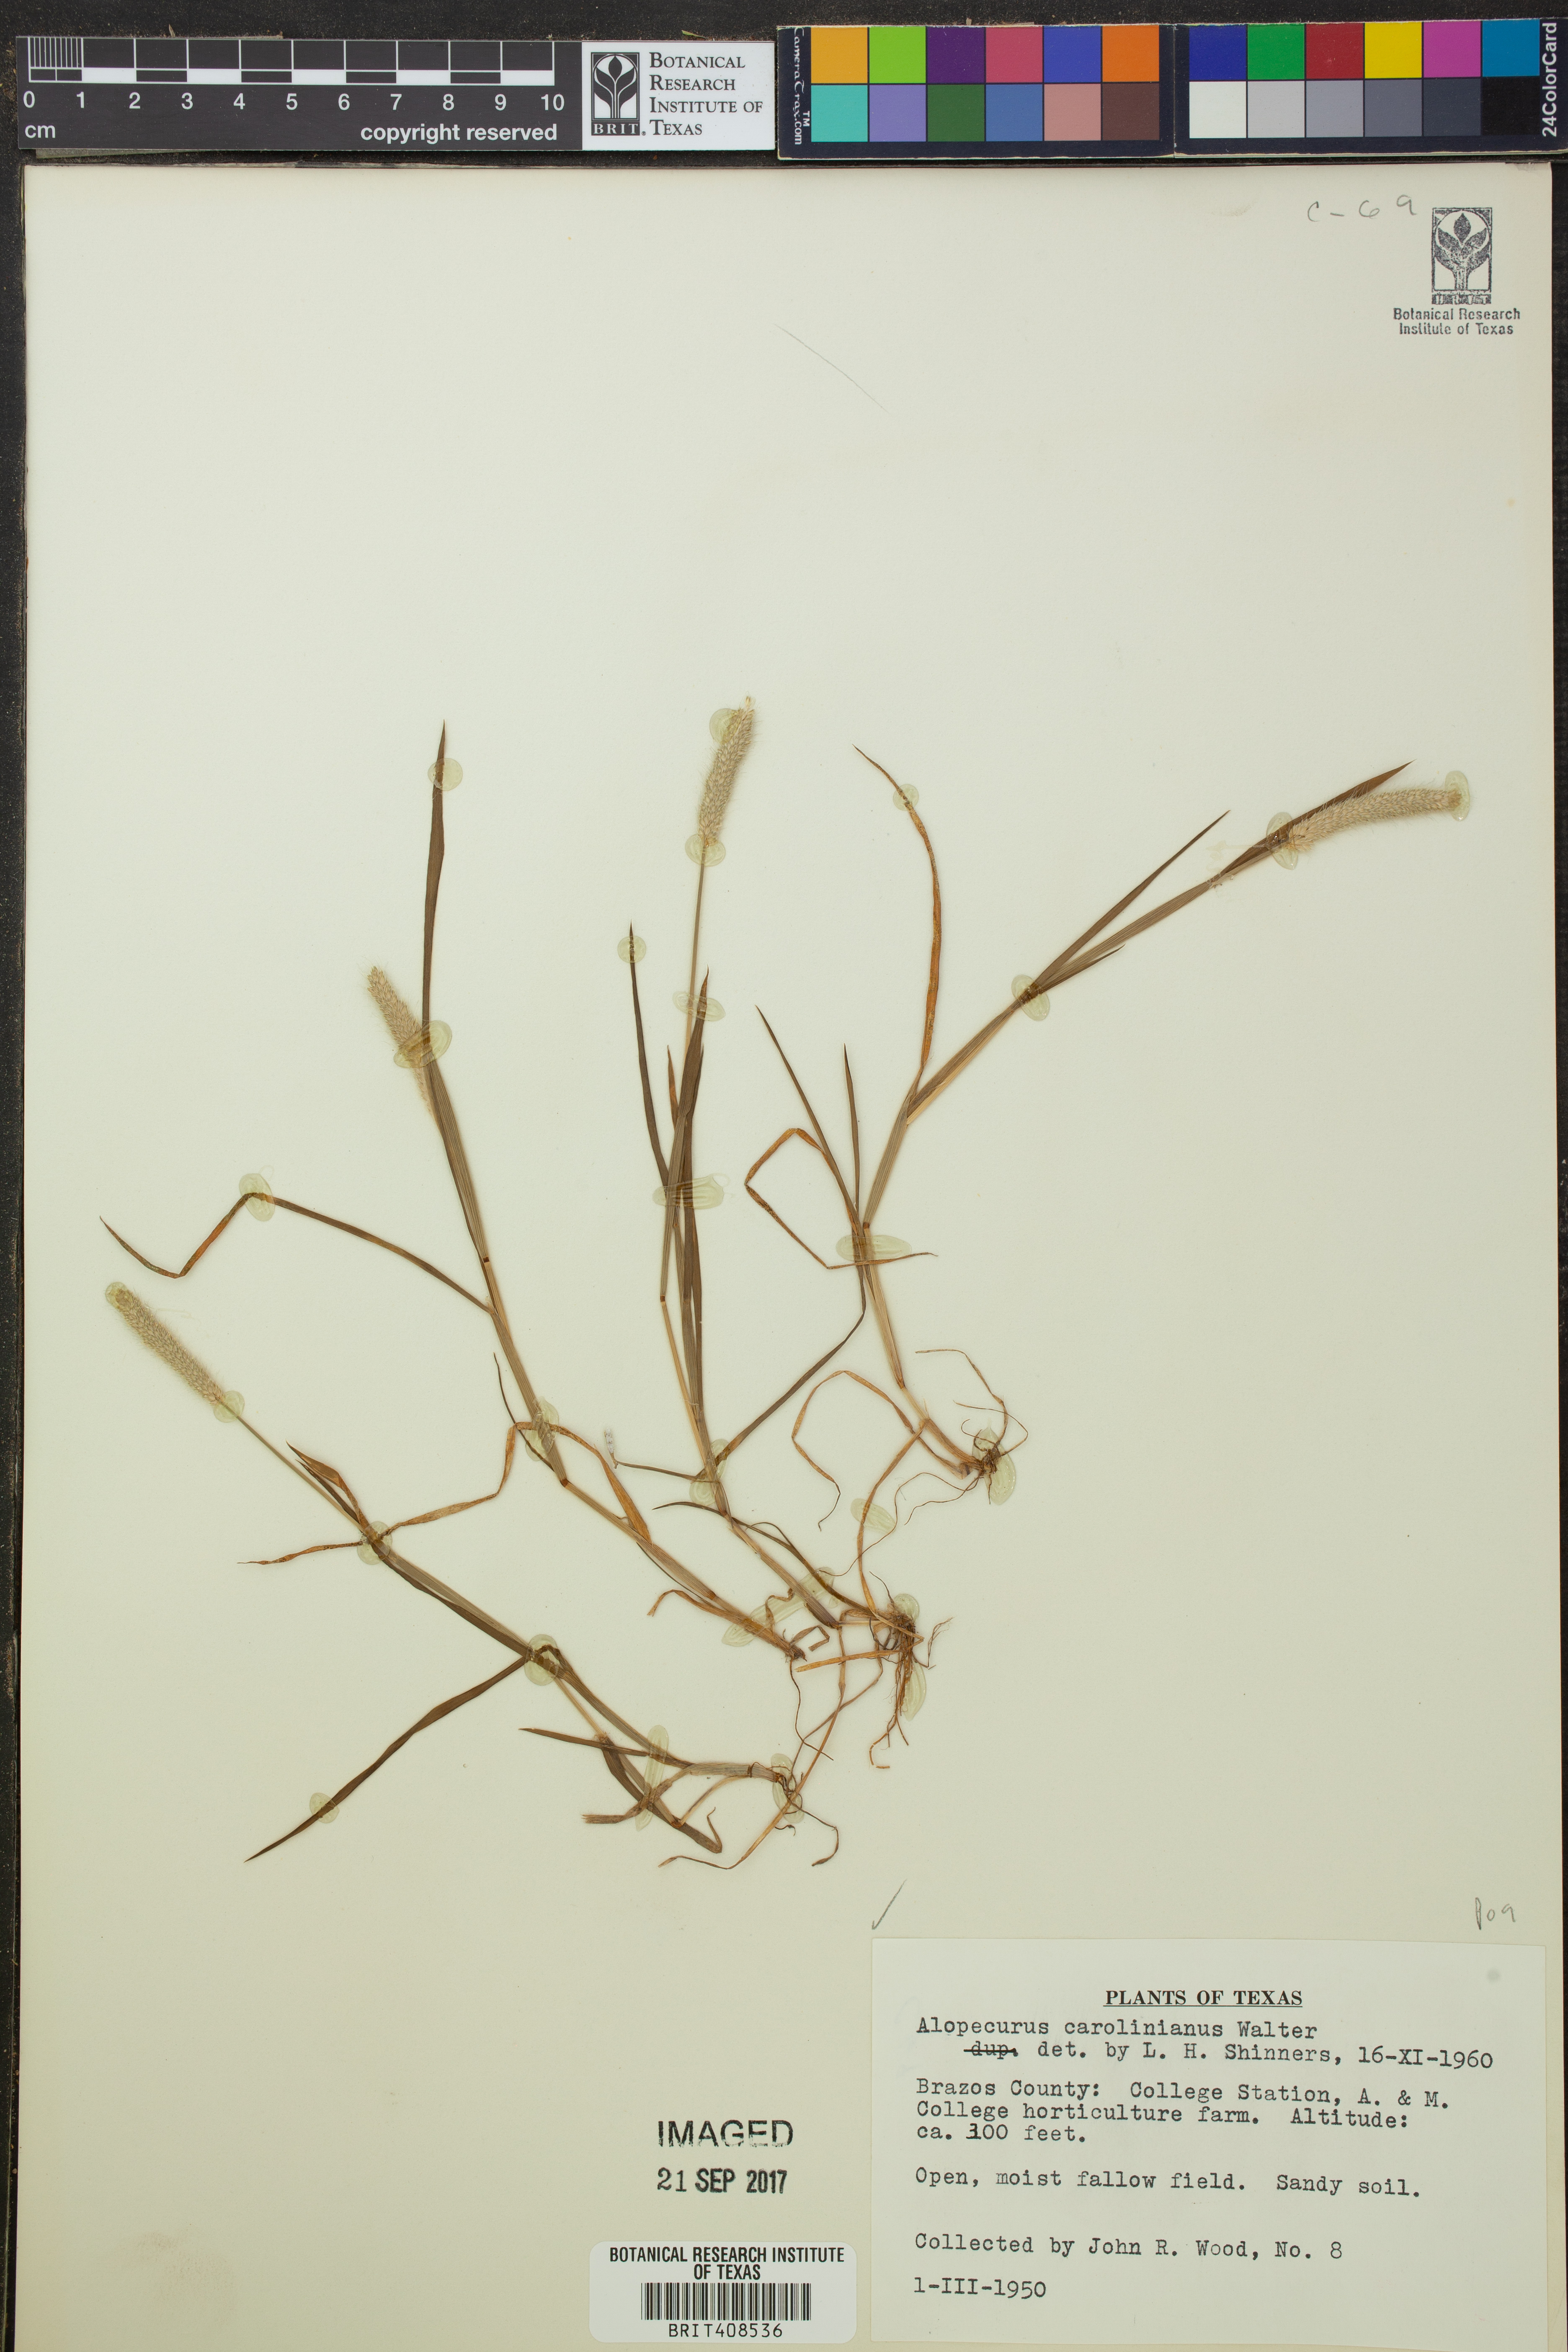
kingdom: Plantae
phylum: Tracheophyta
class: Liliopsida
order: Poales
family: Poaceae
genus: Alopecurus
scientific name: Alopecurus carolinianus
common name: Tufted foxtail
